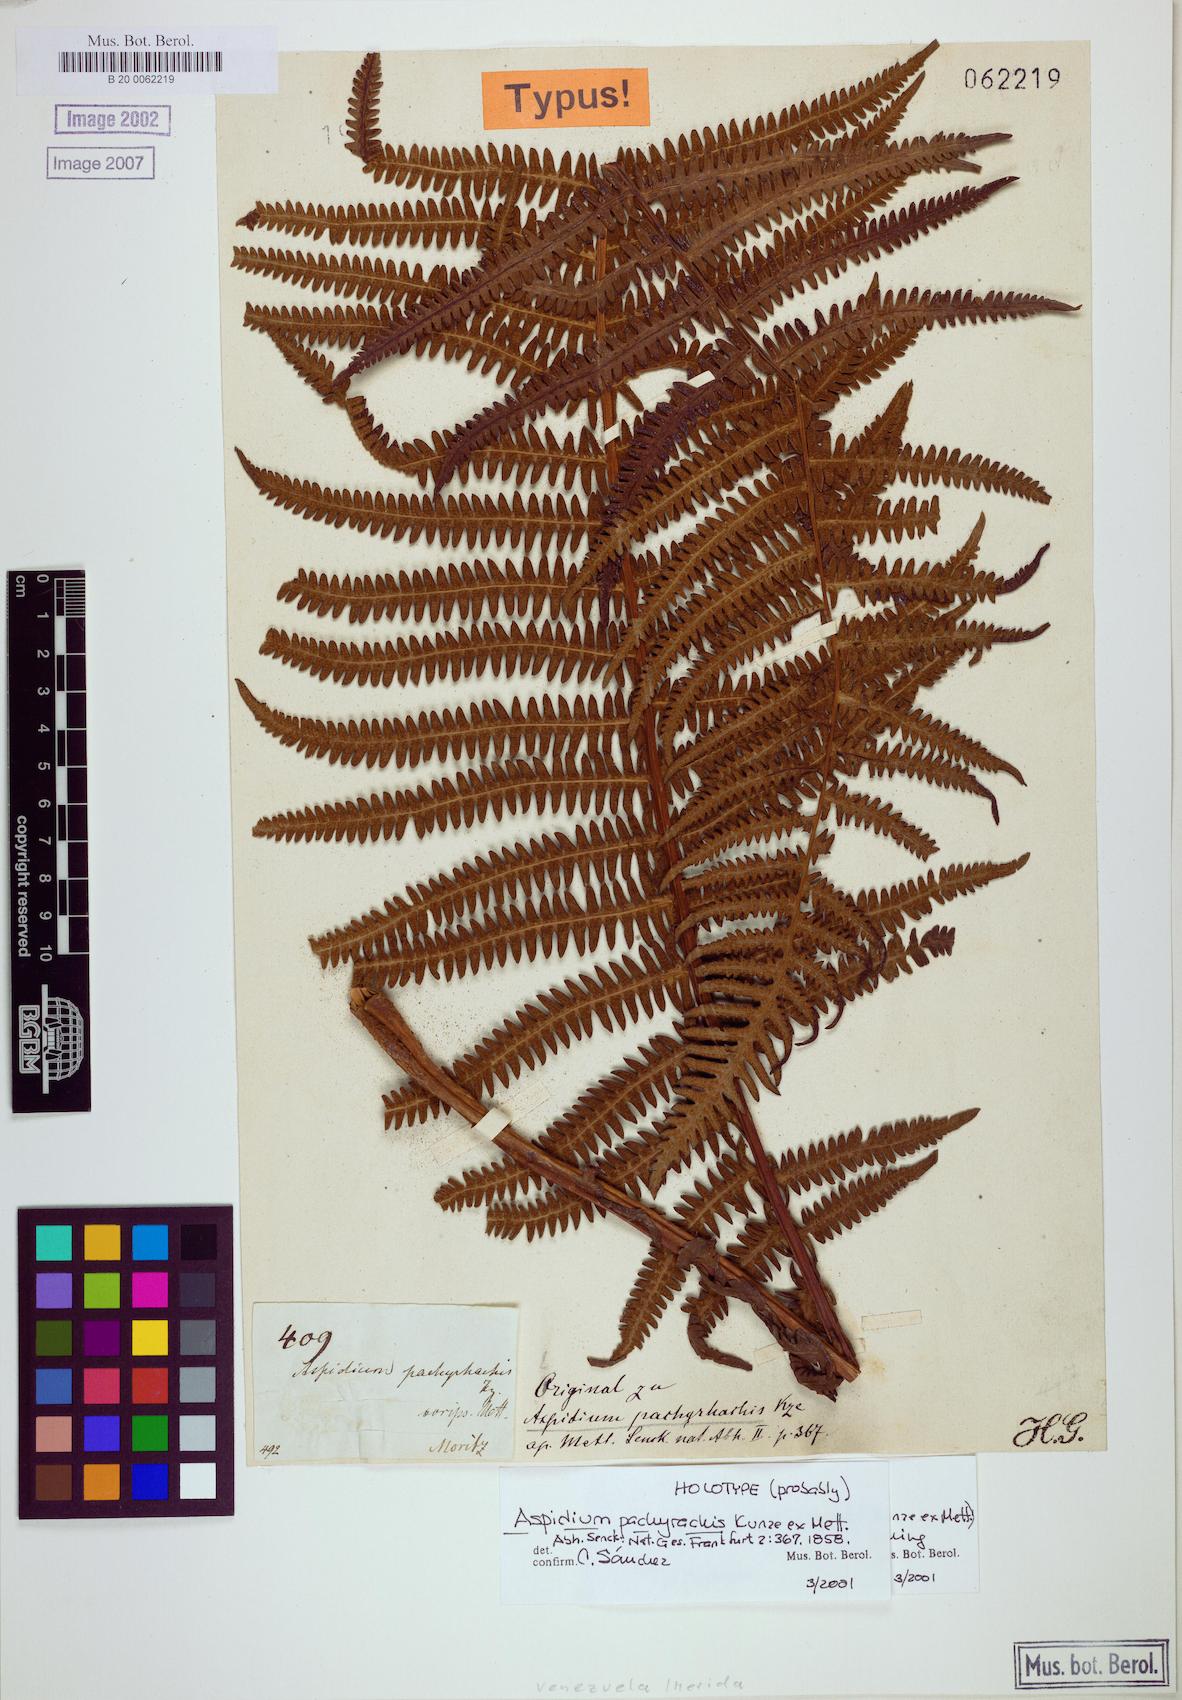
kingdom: Plantae
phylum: Tracheophyta
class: Polypodiopsida
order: Polypodiales
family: Thelypteridaceae
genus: Amauropelta
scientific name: Amauropelta pachyrhachis
